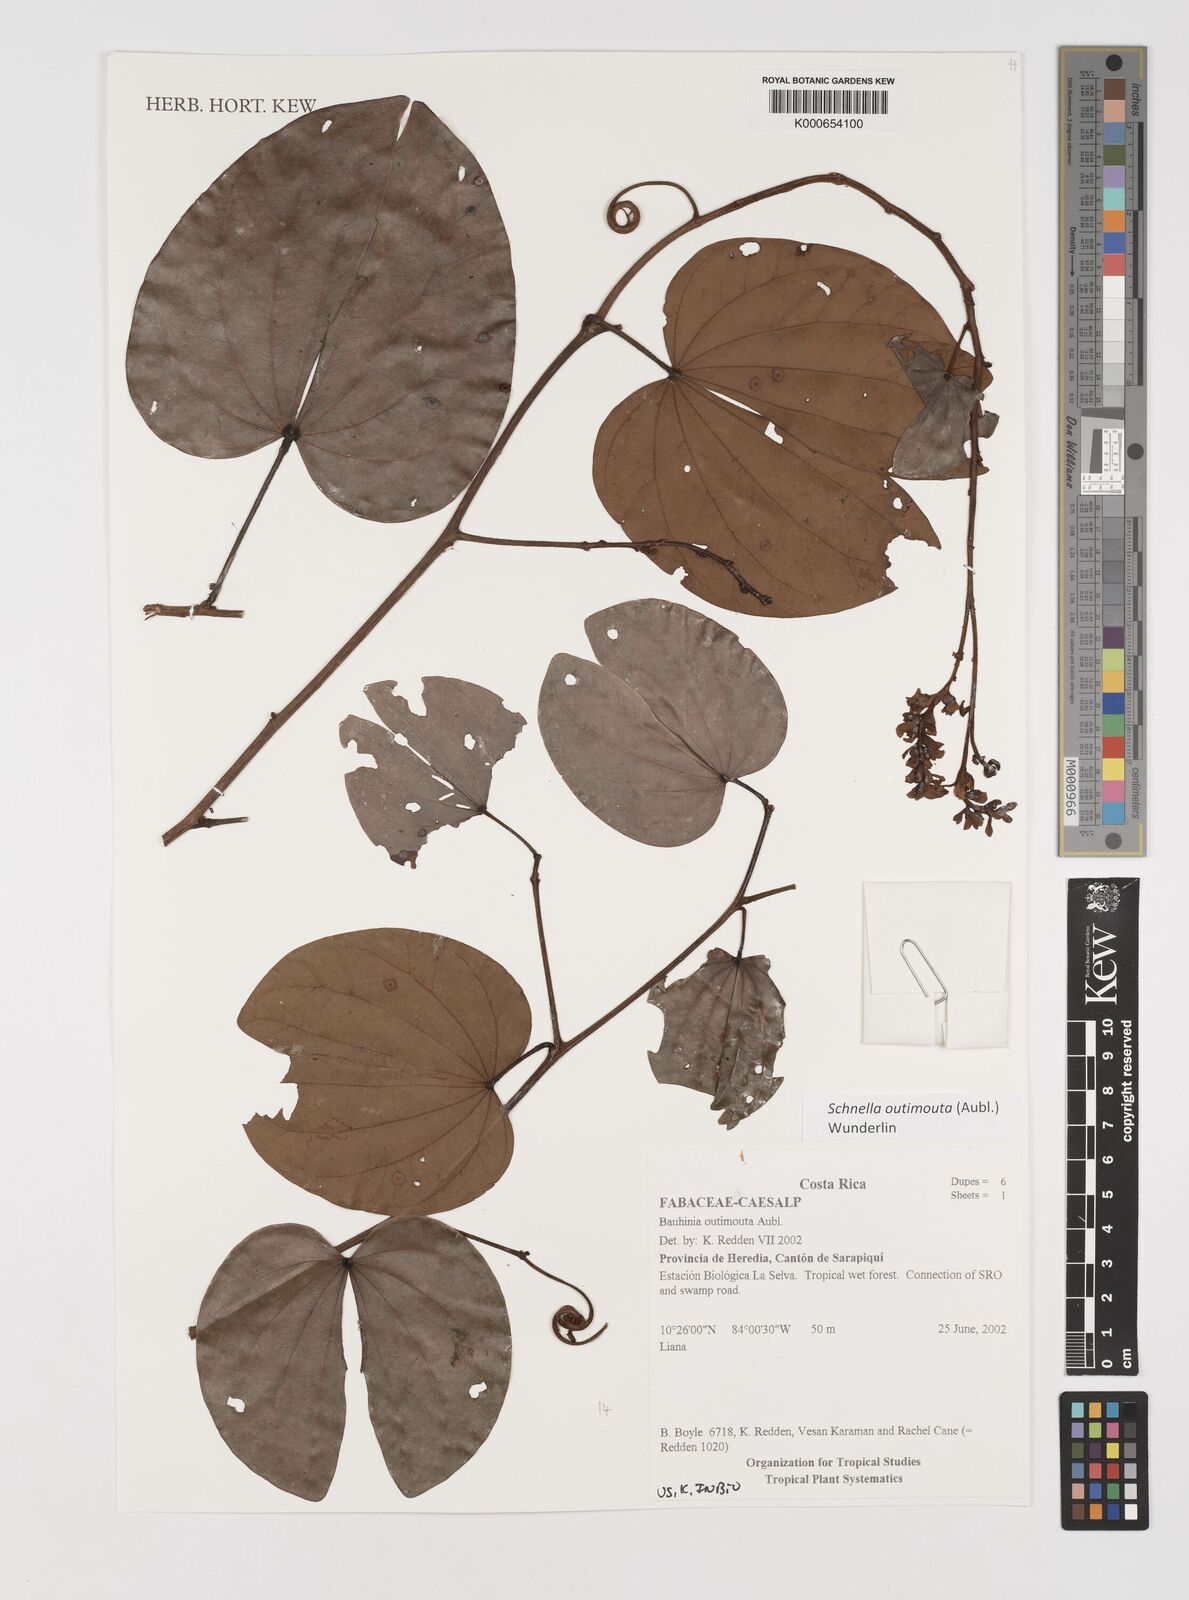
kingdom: Plantae
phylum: Tracheophyta
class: Magnoliopsida
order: Fabales
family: Fabaceae
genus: Schnella
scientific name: Schnella outimouta
